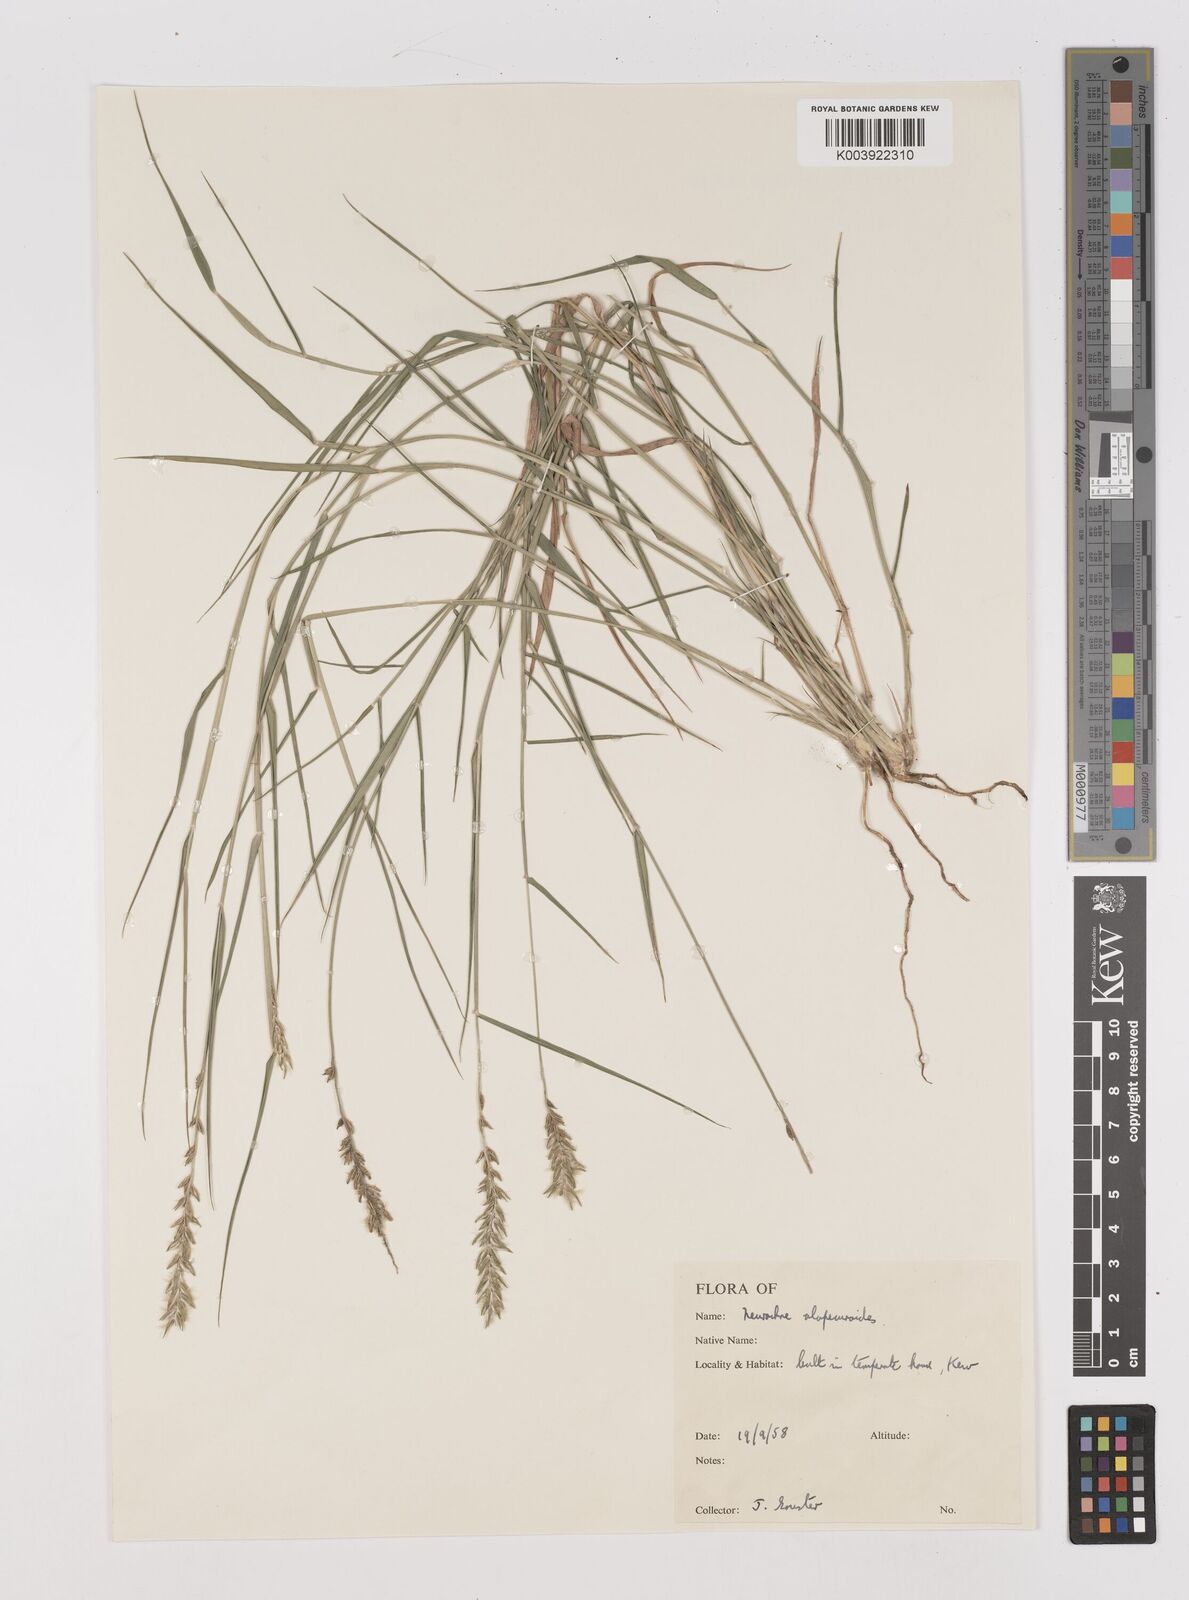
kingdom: Plantae
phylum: Tracheophyta
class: Liliopsida
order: Poales
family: Poaceae
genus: Thyridolepis
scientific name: Thyridolepis mitchelliana
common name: Rock tassel grass
